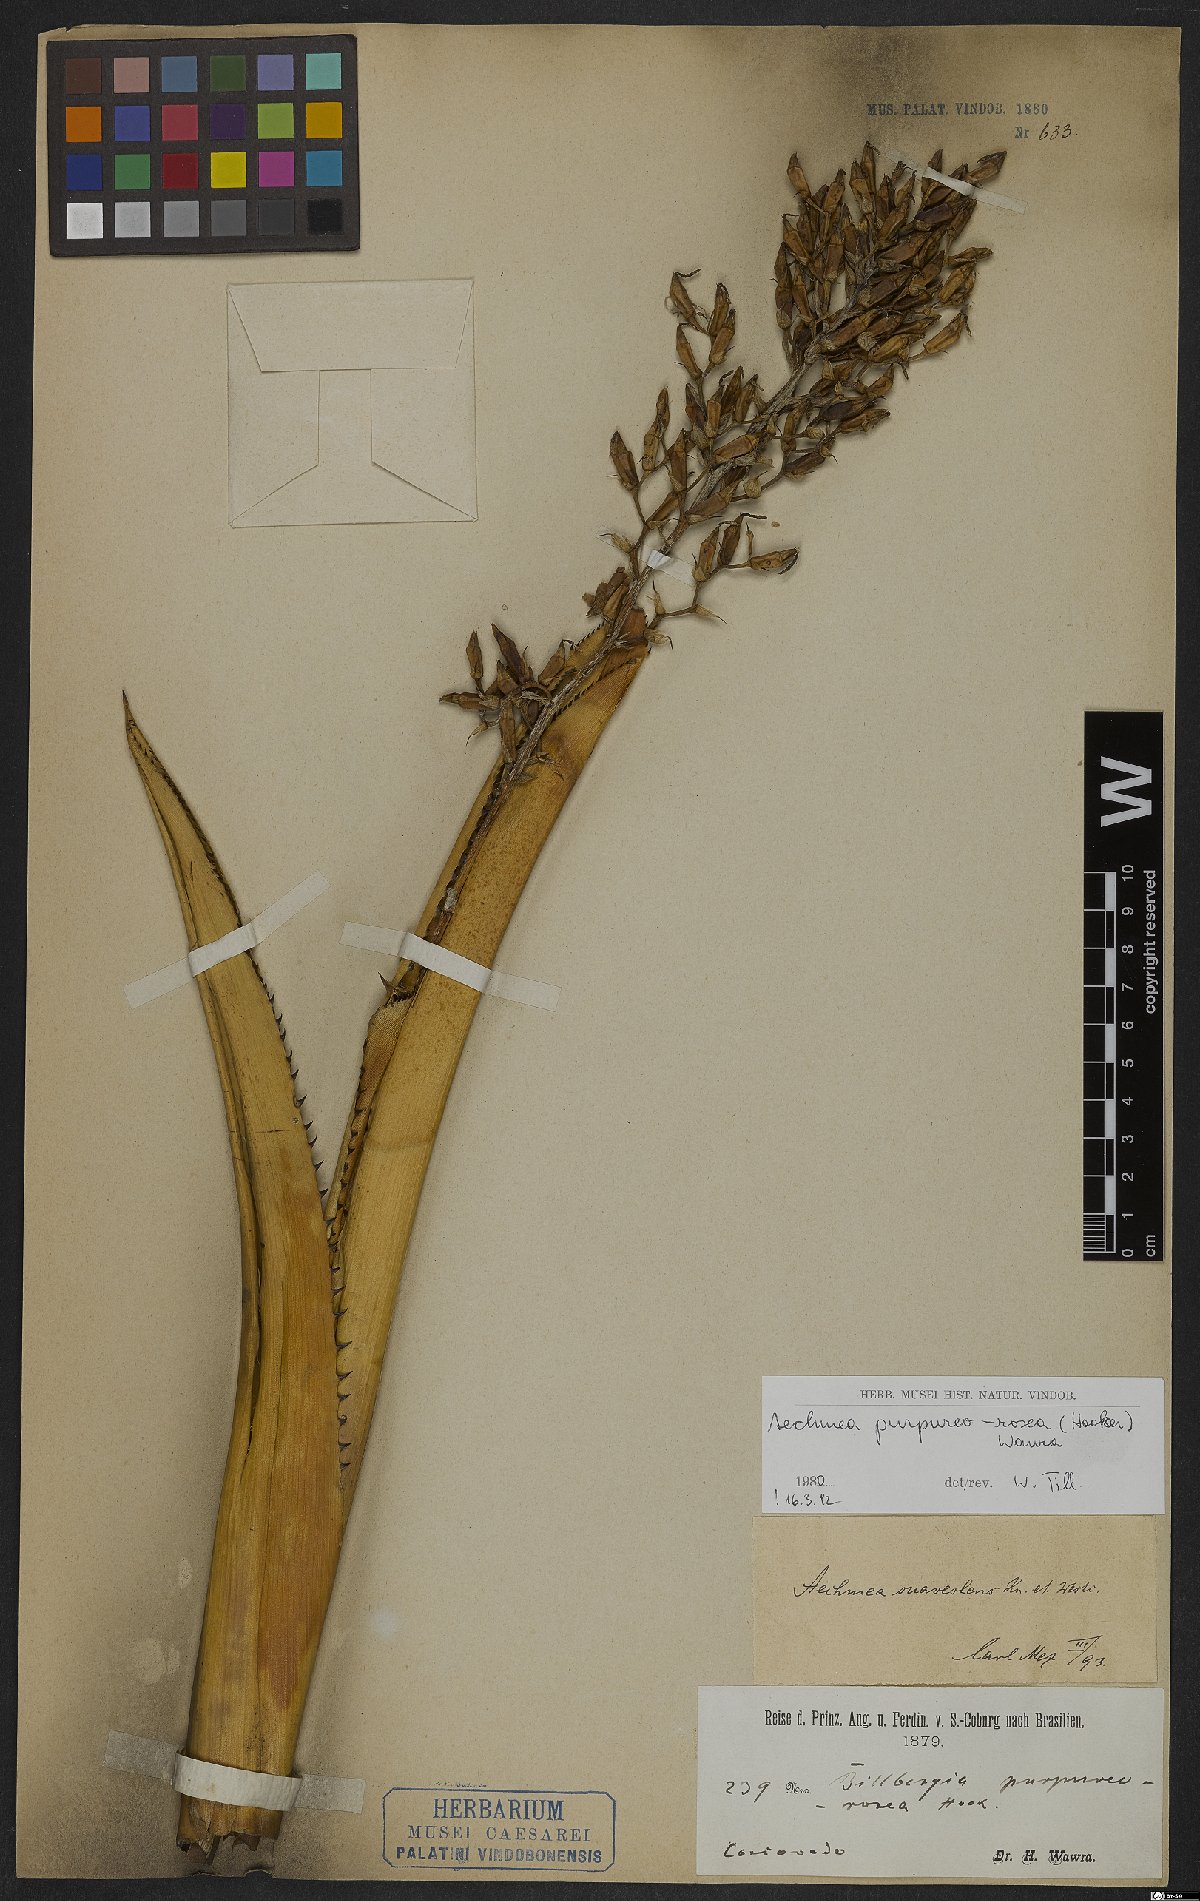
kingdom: Plantae
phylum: Tracheophyta
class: Liliopsida
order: Poales
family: Bromeliaceae
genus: Aechmea
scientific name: Aechmea purpureorosea
